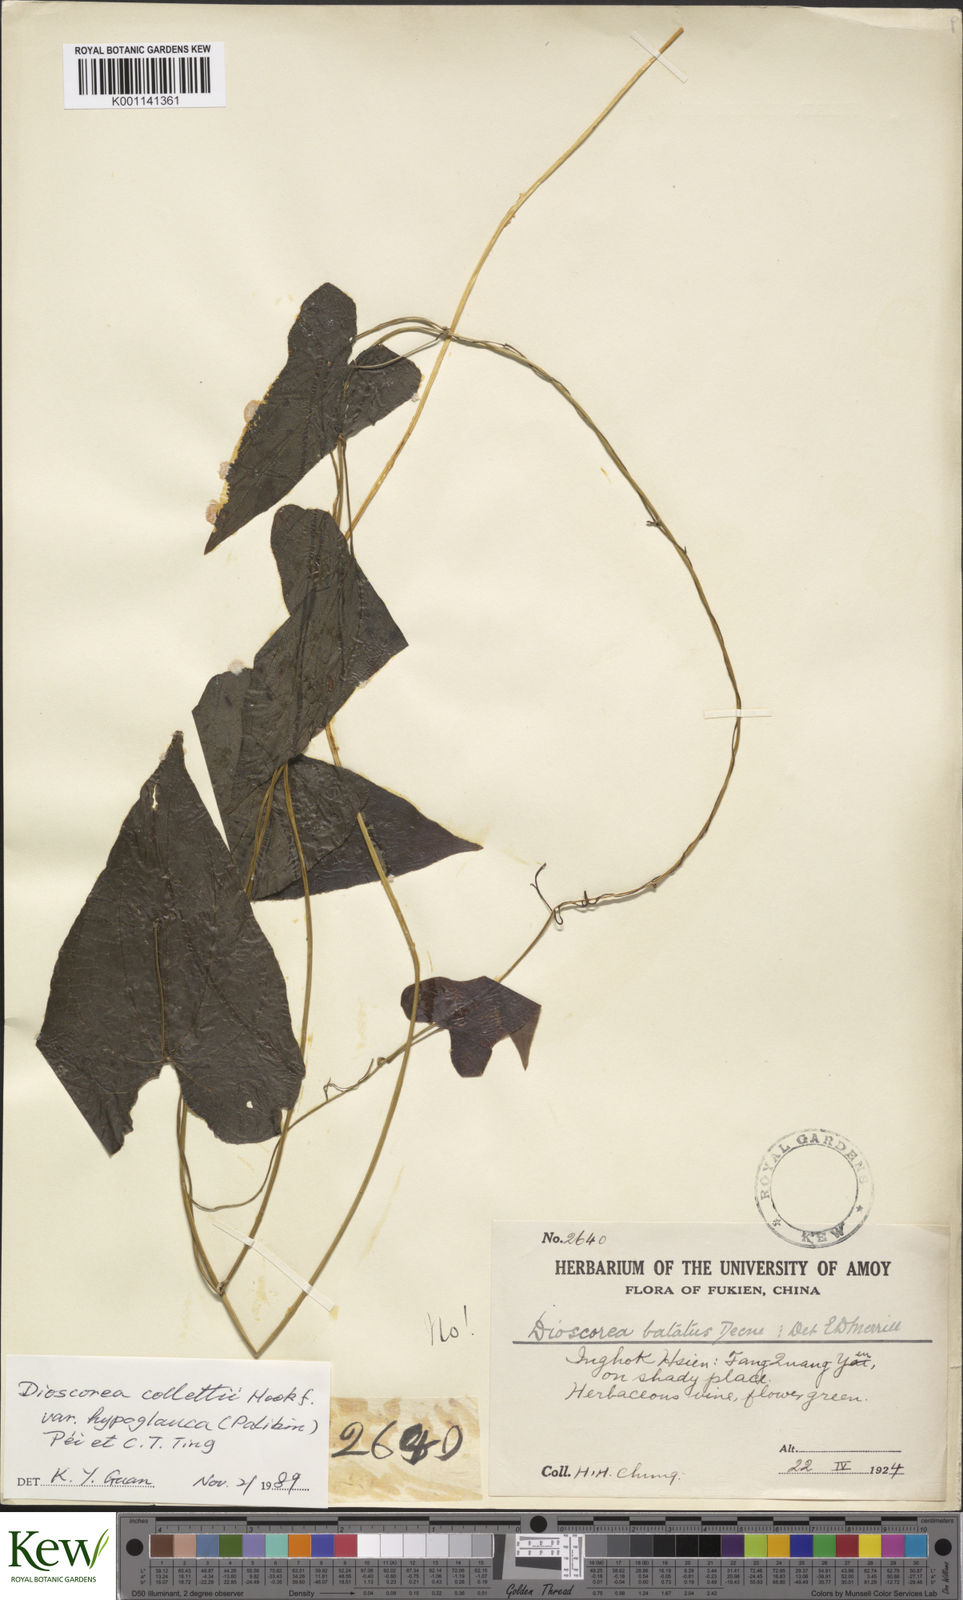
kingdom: Plantae
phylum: Tracheophyta
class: Liliopsida
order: Dioscoreales
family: Dioscoreaceae
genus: Dioscorea
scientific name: Dioscorea collettii
